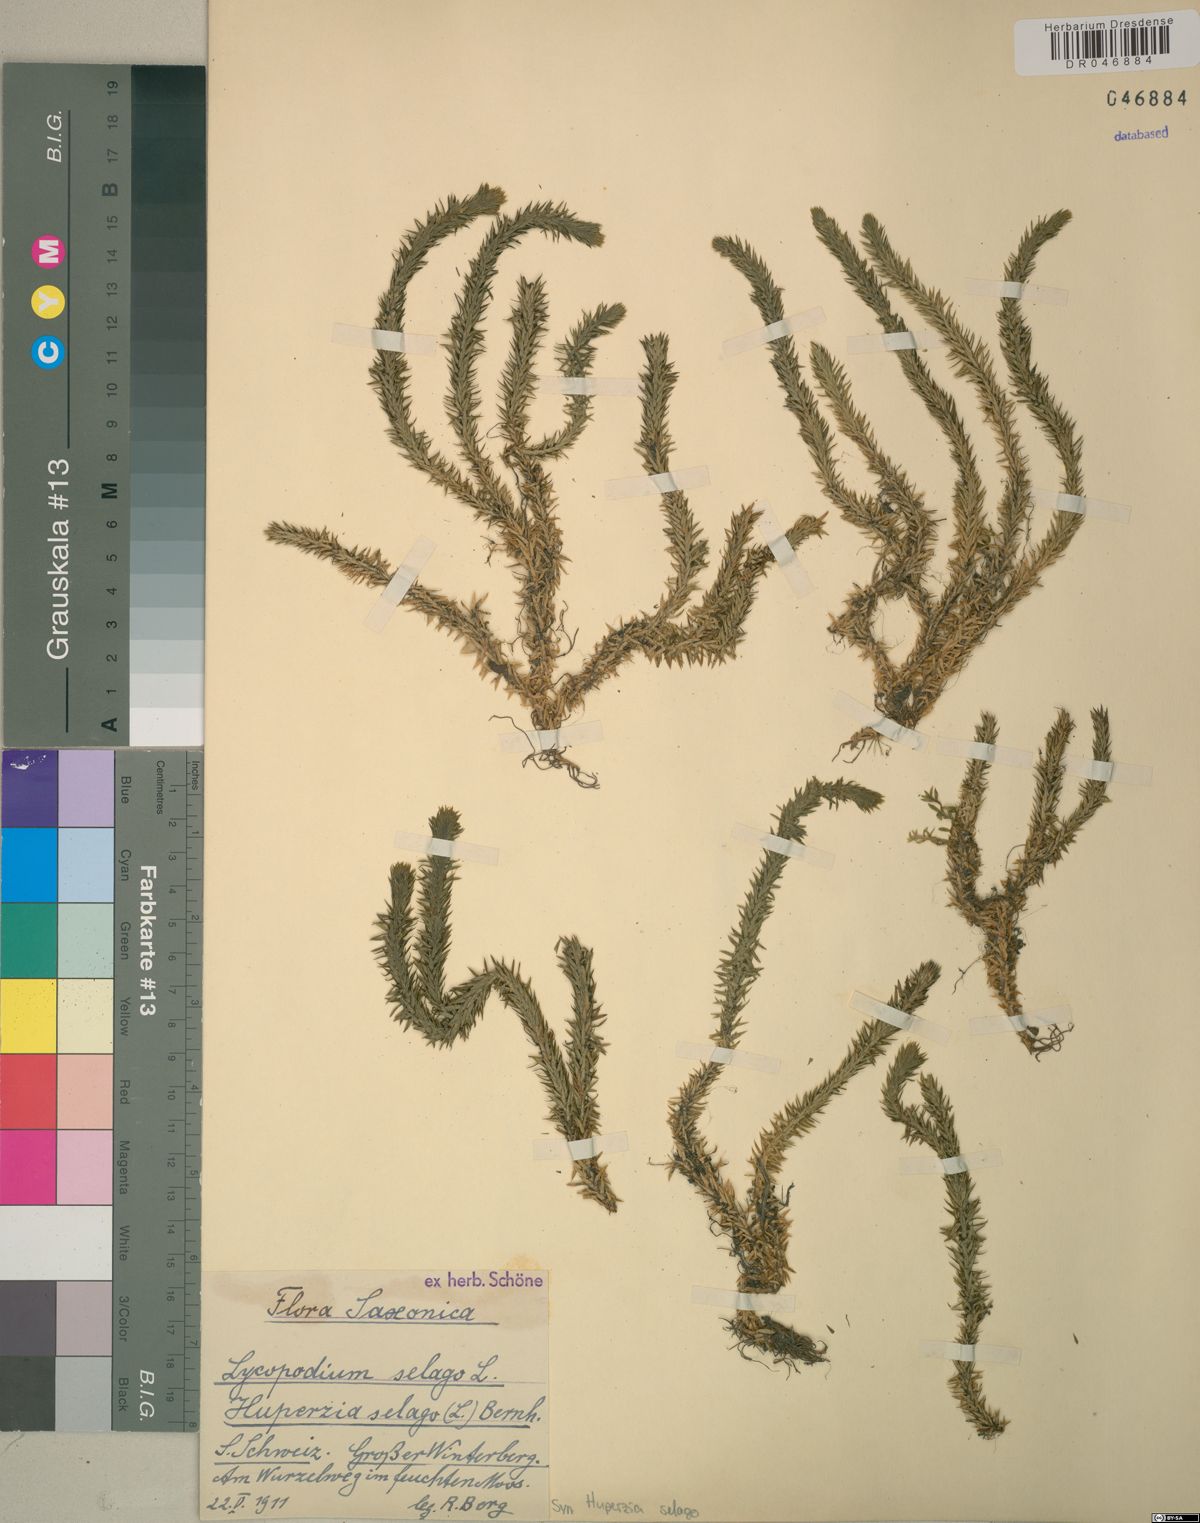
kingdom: Plantae
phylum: Tracheophyta
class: Lycopodiopsida
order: Lycopodiales
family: Lycopodiaceae
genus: Huperzia
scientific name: Huperzia selago
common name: Northern firmoss
